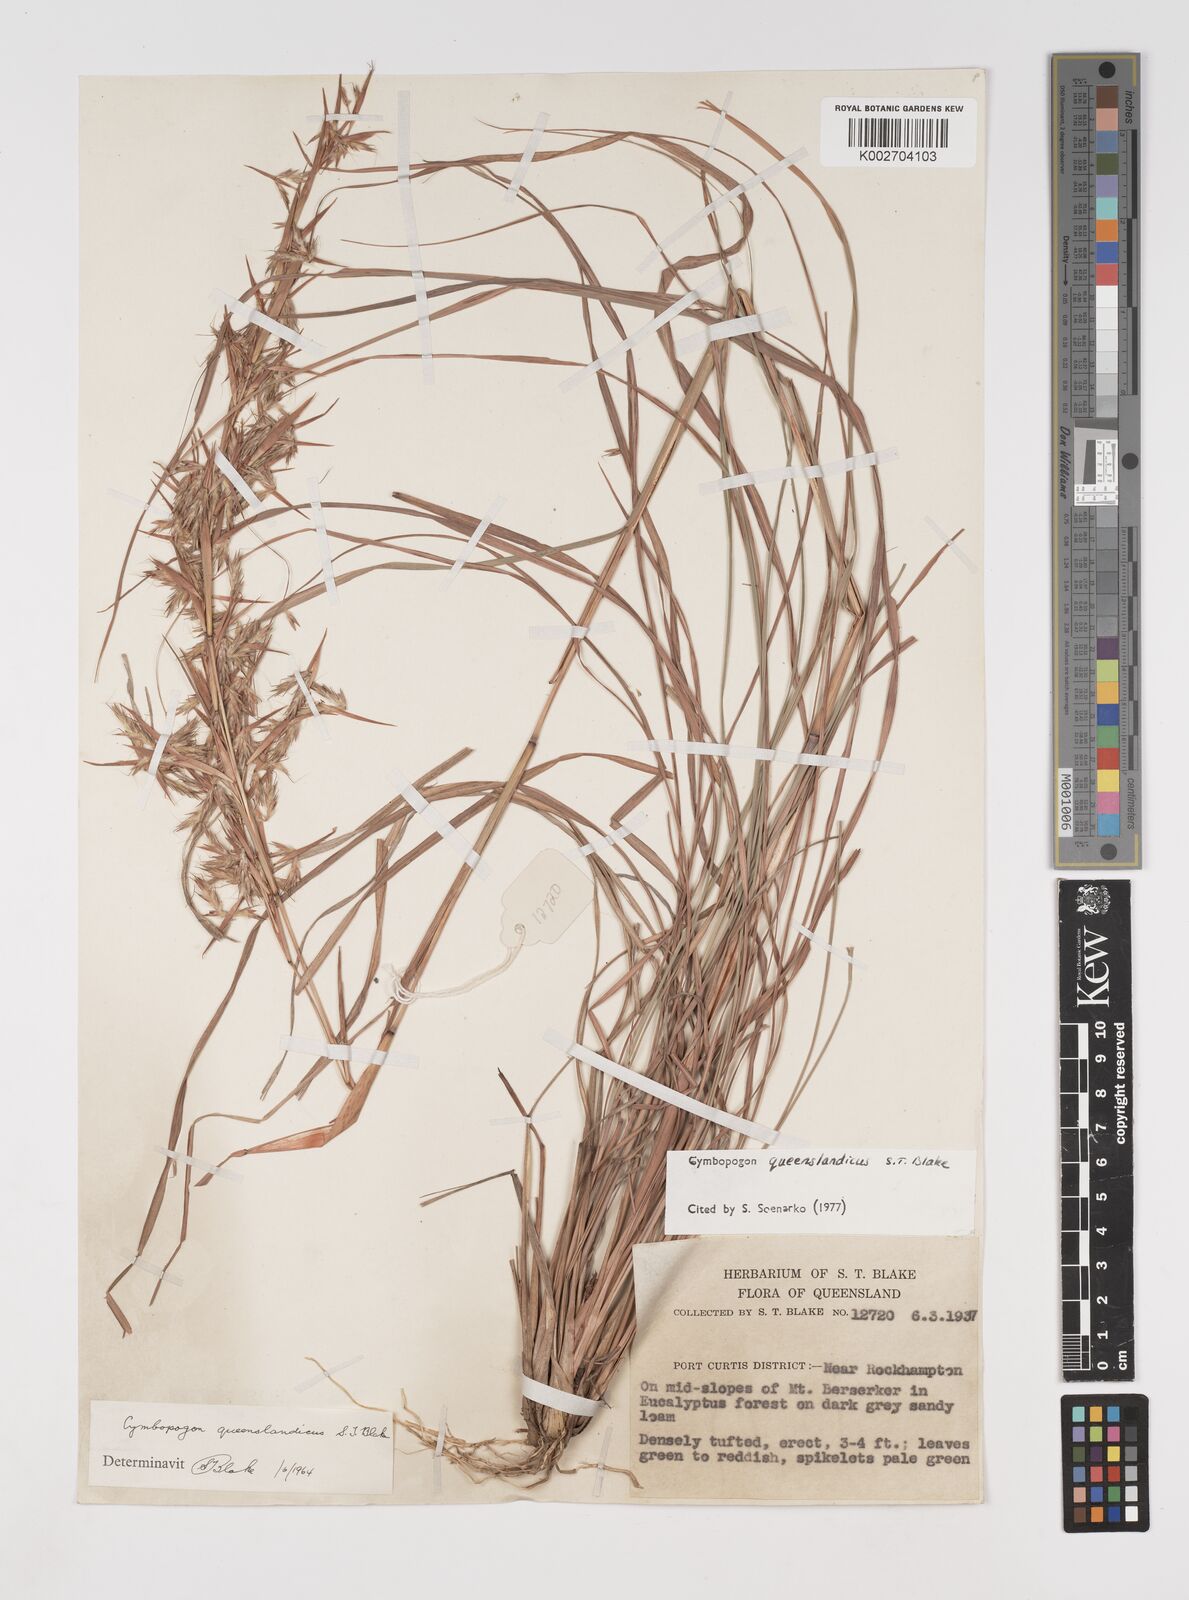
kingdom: Plantae
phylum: Tracheophyta
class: Liliopsida
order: Poales
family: Poaceae
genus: Cymbopogon
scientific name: Cymbopogon queenslandicus
